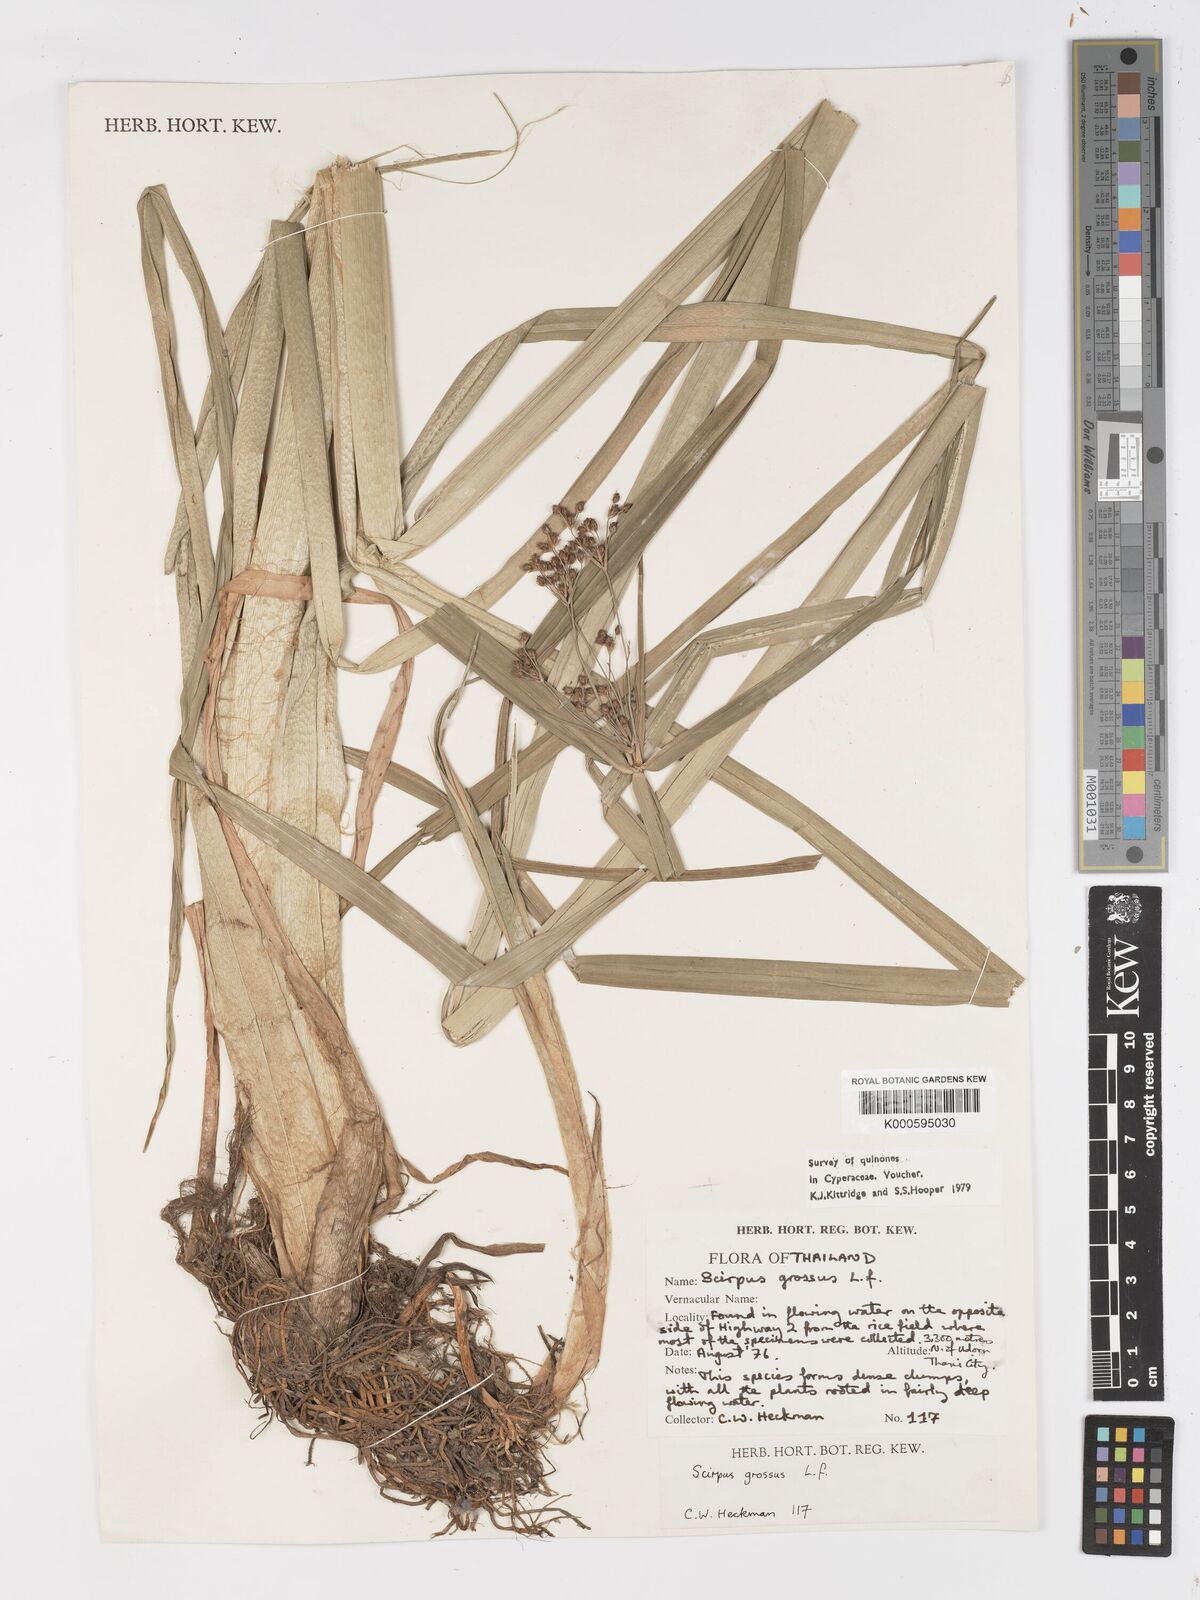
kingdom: Plantae
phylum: Tracheophyta
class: Liliopsida
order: Poales
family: Cyperaceae
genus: Actinoscirpus
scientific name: Actinoscirpus grossus
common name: Giant bur rush
